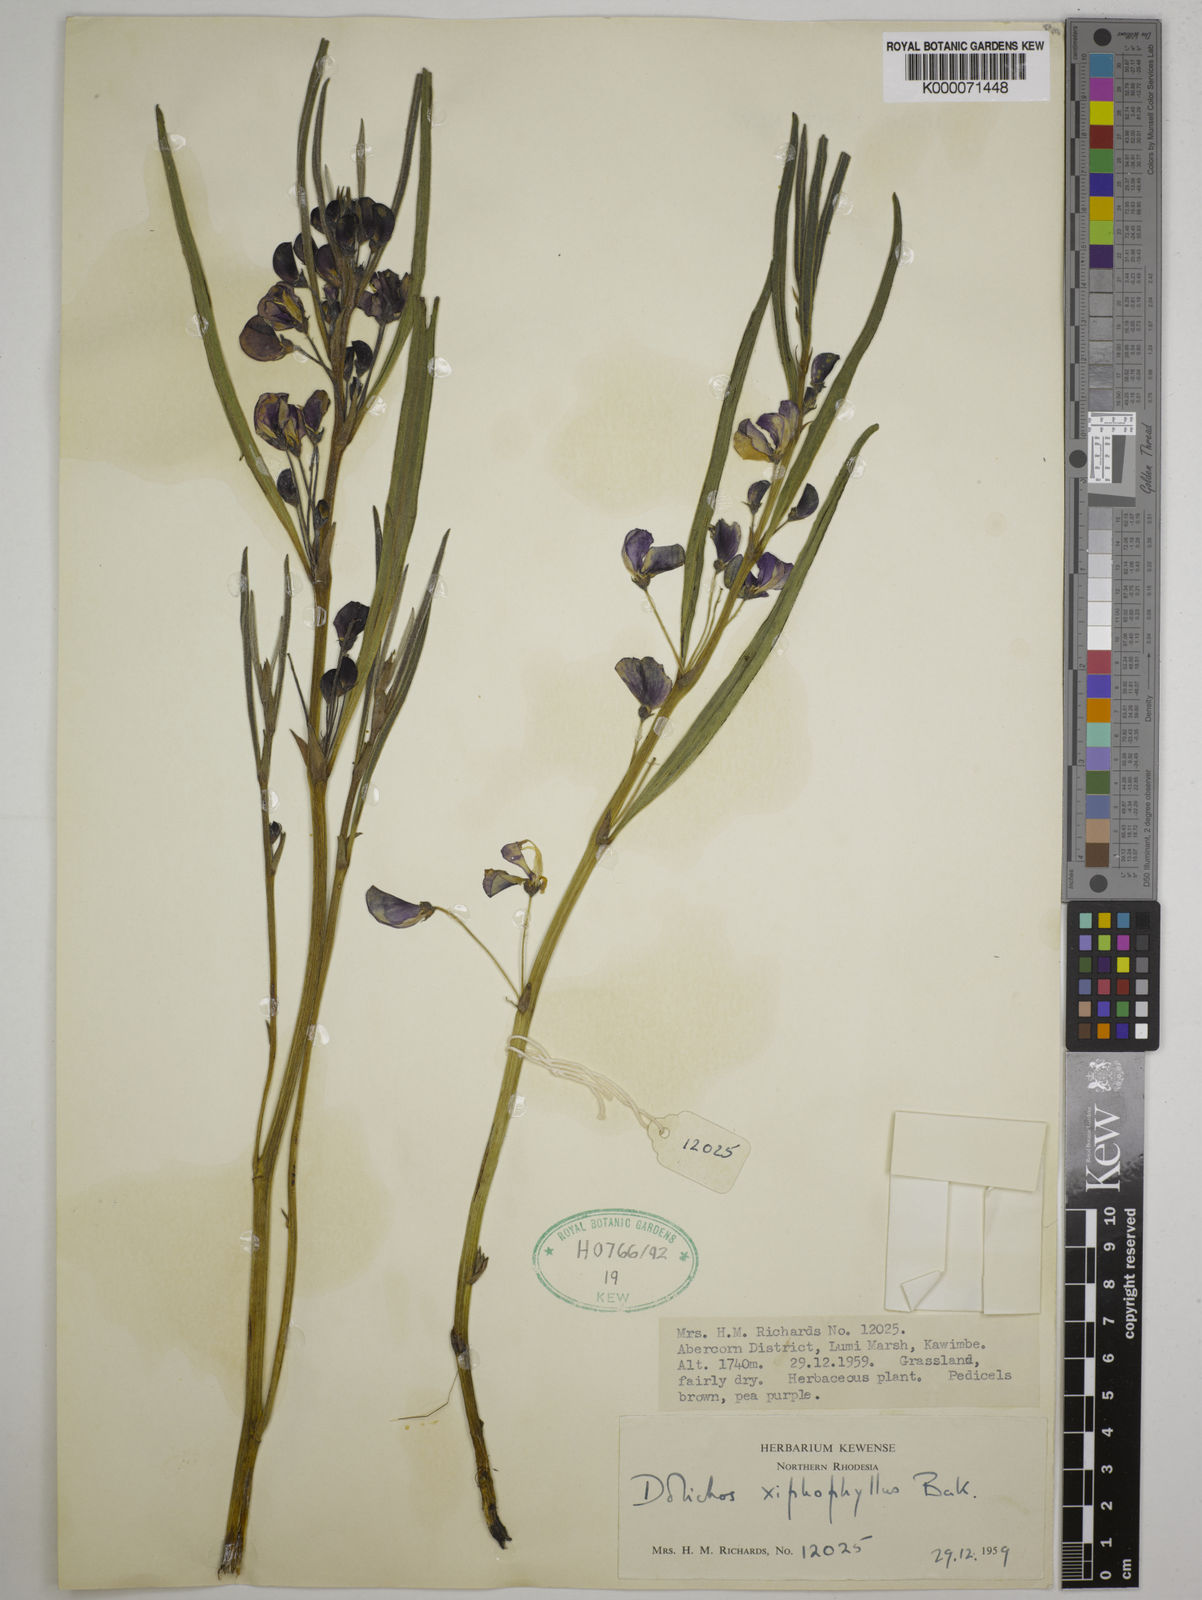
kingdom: Plantae
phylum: Tracheophyta
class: Magnoliopsida
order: Fabales
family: Fabaceae
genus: Dolichos
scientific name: Dolichos xiphophyllus
